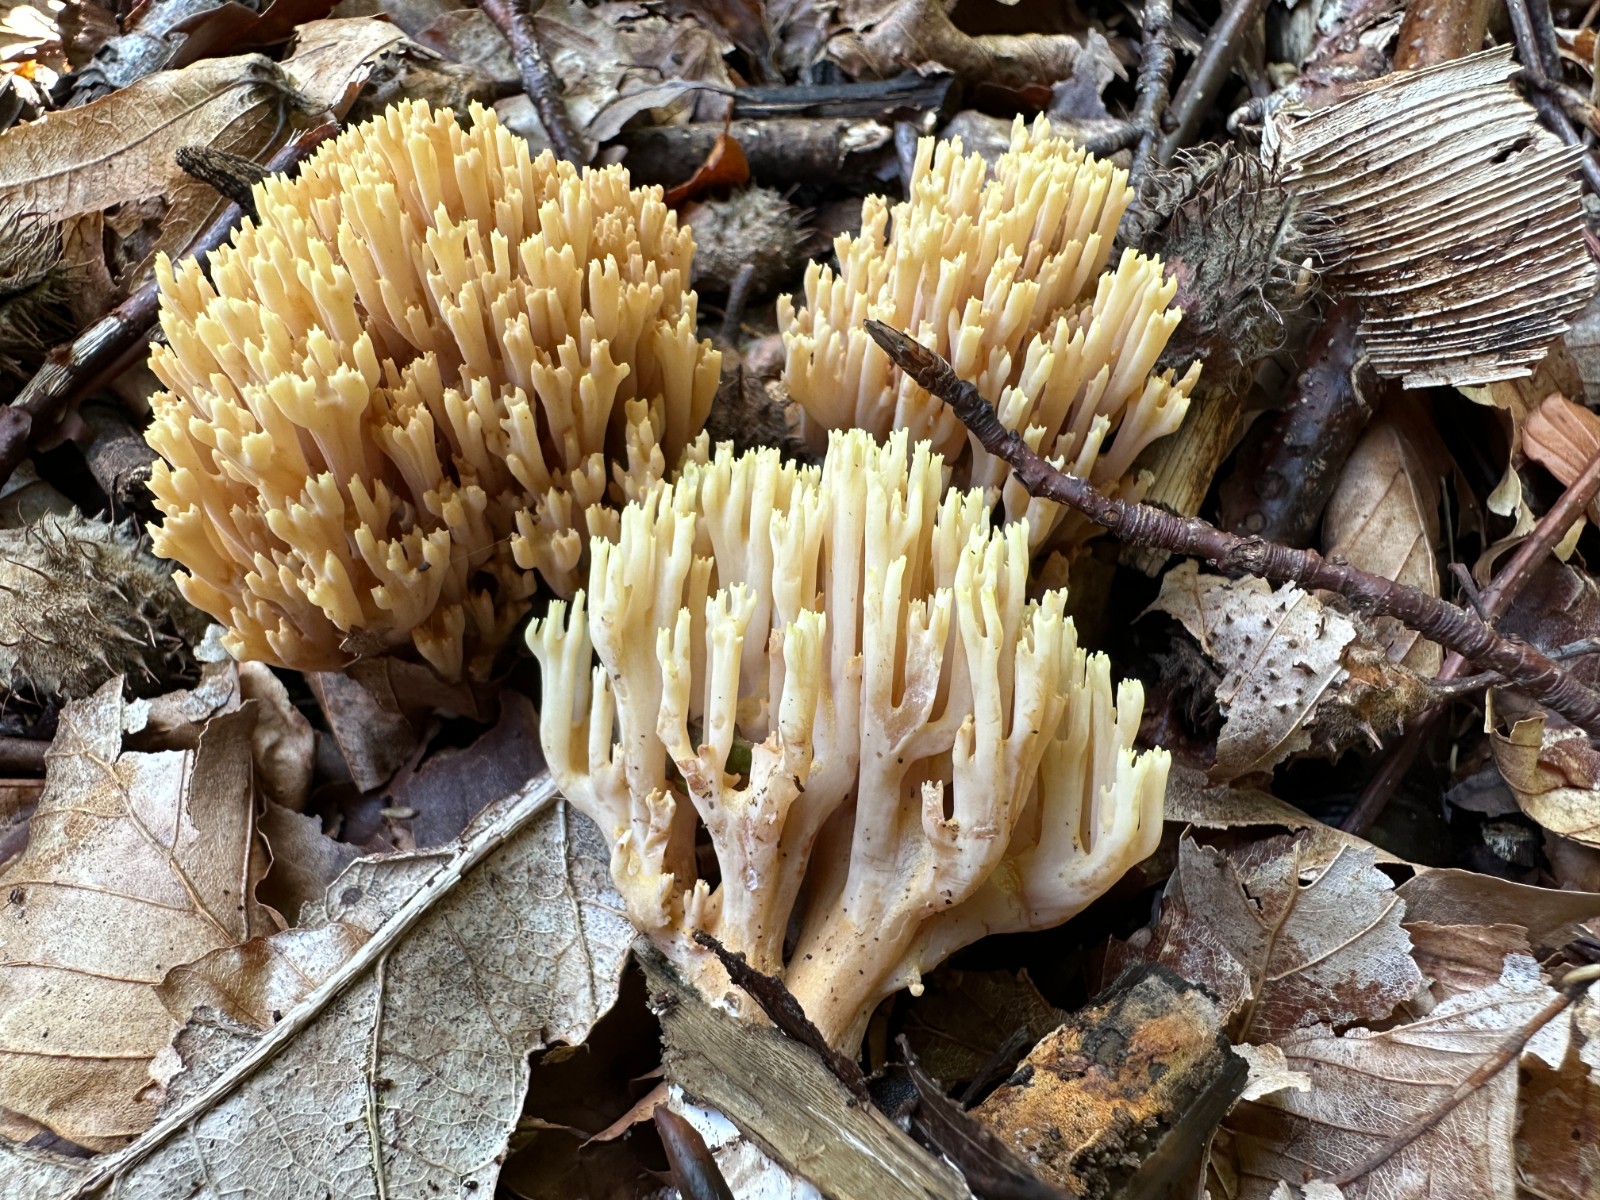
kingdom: Fungi
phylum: Basidiomycota
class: Agaricomycetes
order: Gomphales
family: Gomphaceae
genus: Ramaria
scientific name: Ramaria stricta
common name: rank koralsvamp
